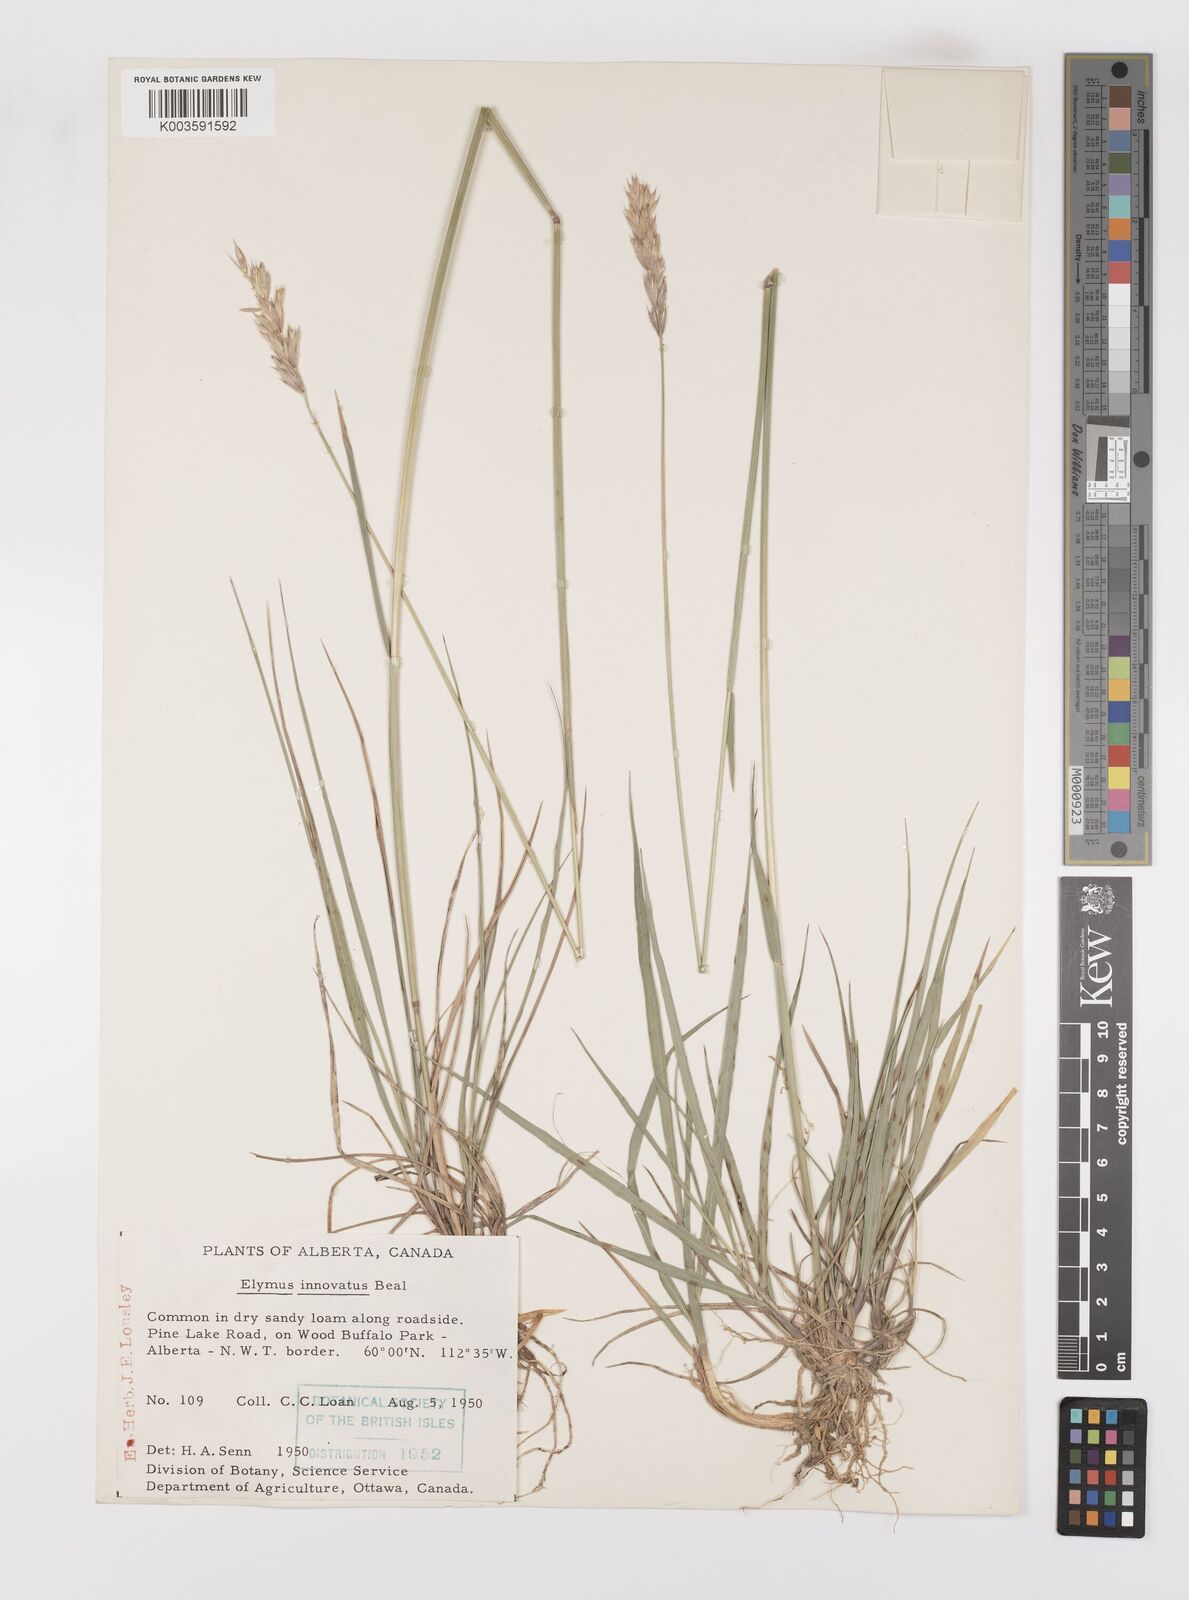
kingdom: Plantae
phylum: Tracheophyta
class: Liliopsida
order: Poales
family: Poaceae
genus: Leymus
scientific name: Leymus innovatus
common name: Boreal wild rye
